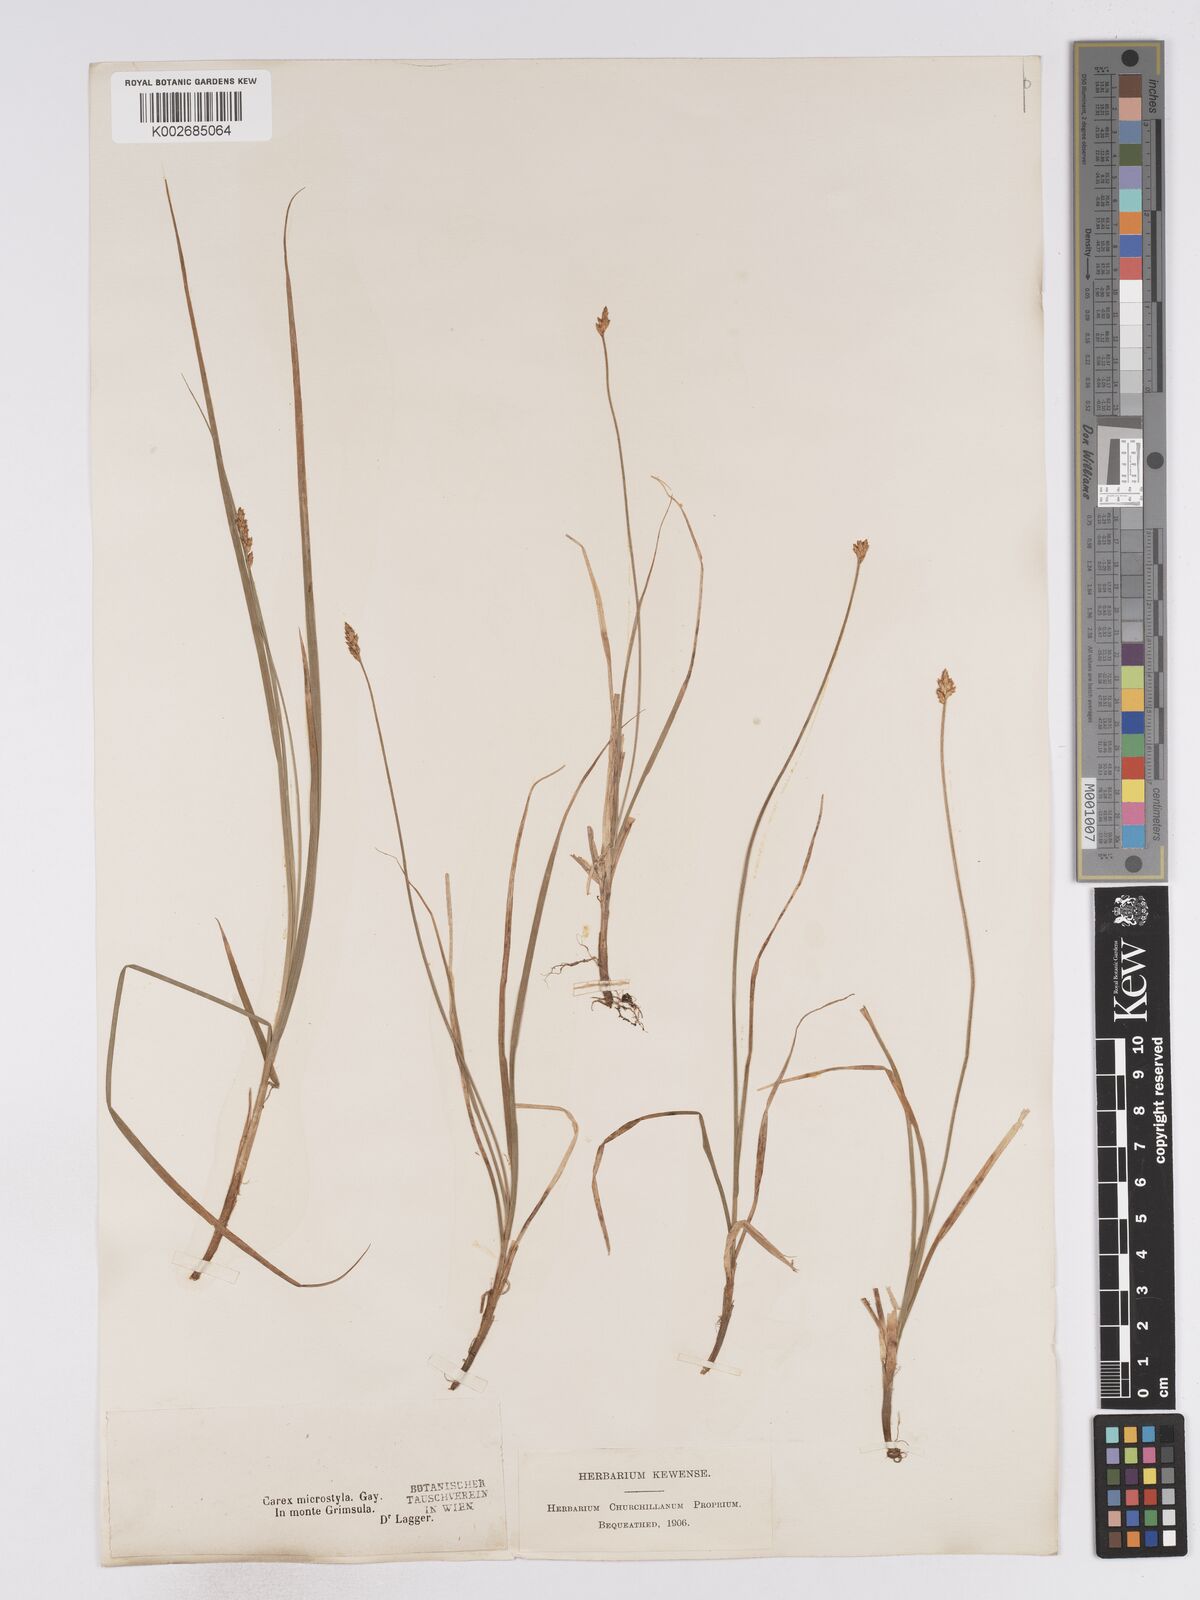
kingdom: Plantae
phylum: Tracheophyta
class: Liliopsida
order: Poales
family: Cyperaceae
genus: Carex
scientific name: Carex microstyla
